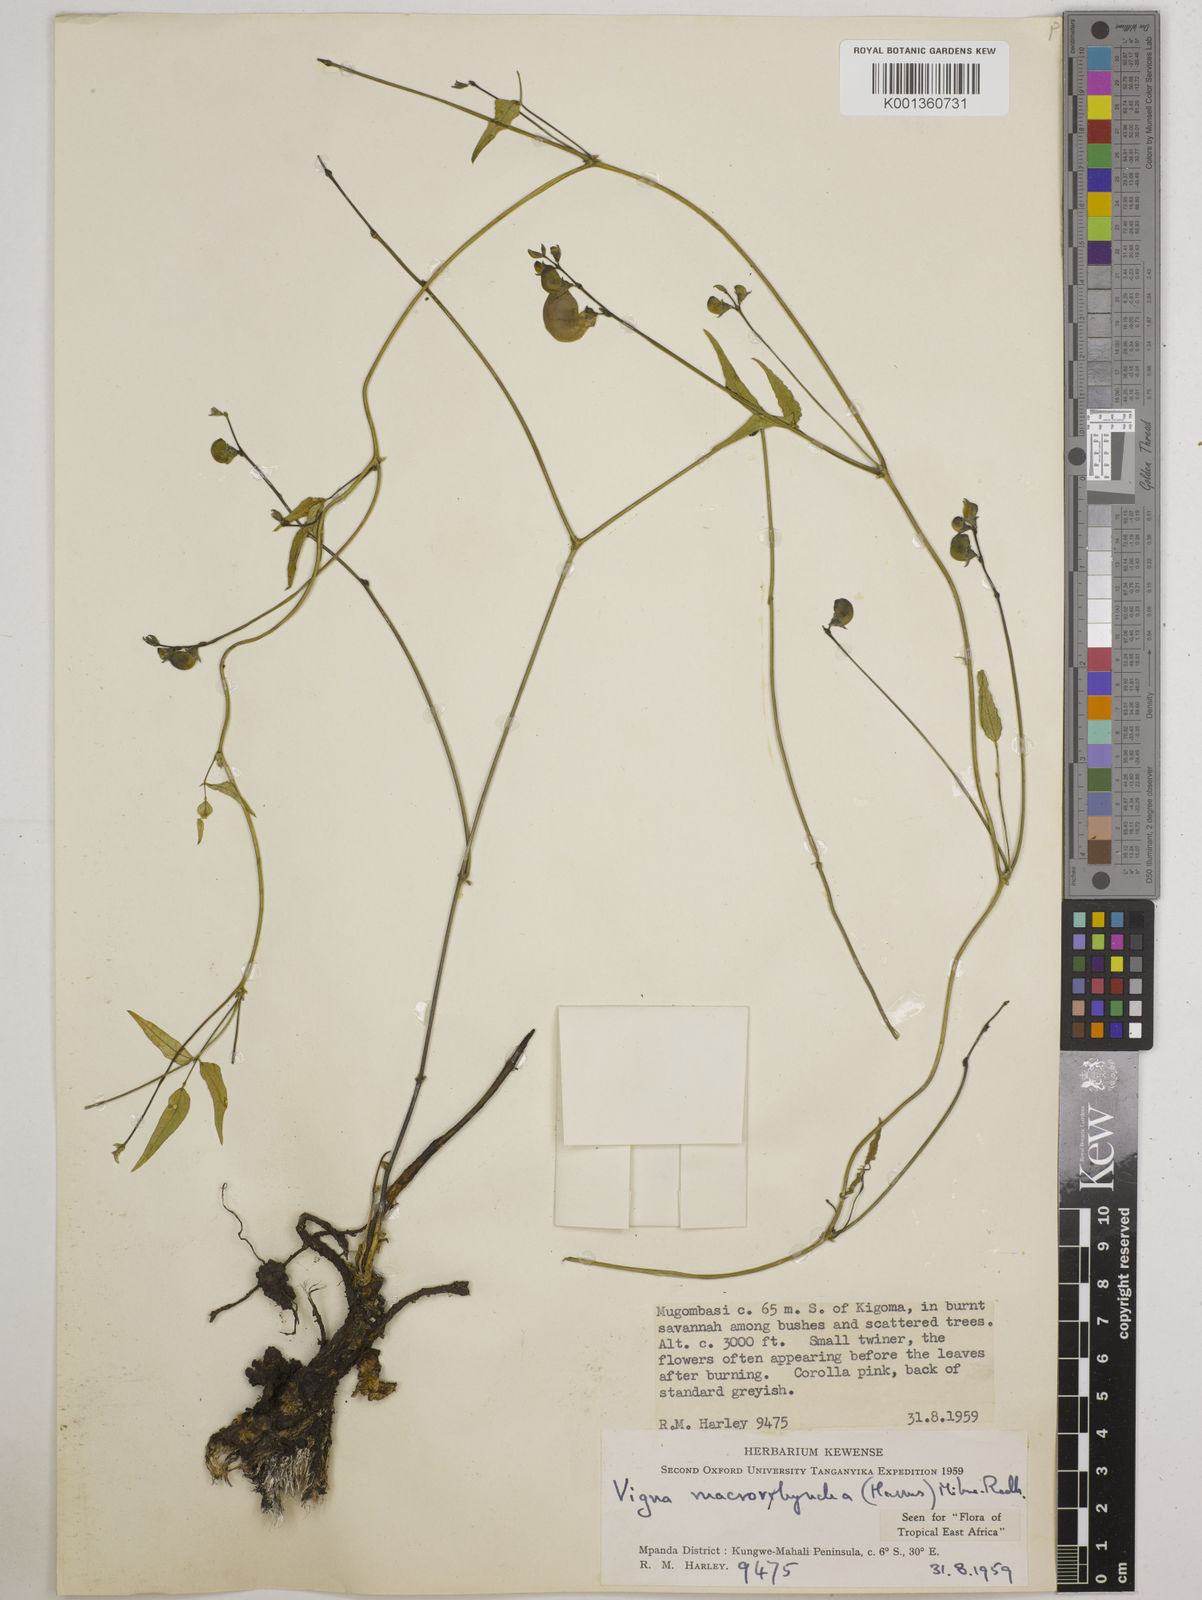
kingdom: Plantae
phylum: Tracheophyta
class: Magnoliopsida
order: Fabales
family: Fabaceae
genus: Wajira
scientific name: Wajira grahamiana
